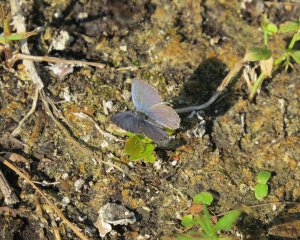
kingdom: Animalia
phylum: Arthropoda
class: Insecta
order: Lepidoptera
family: Lycaenidae
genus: Elkalyce
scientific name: Elkalyce amyntula
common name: Western Tailed-Blue
